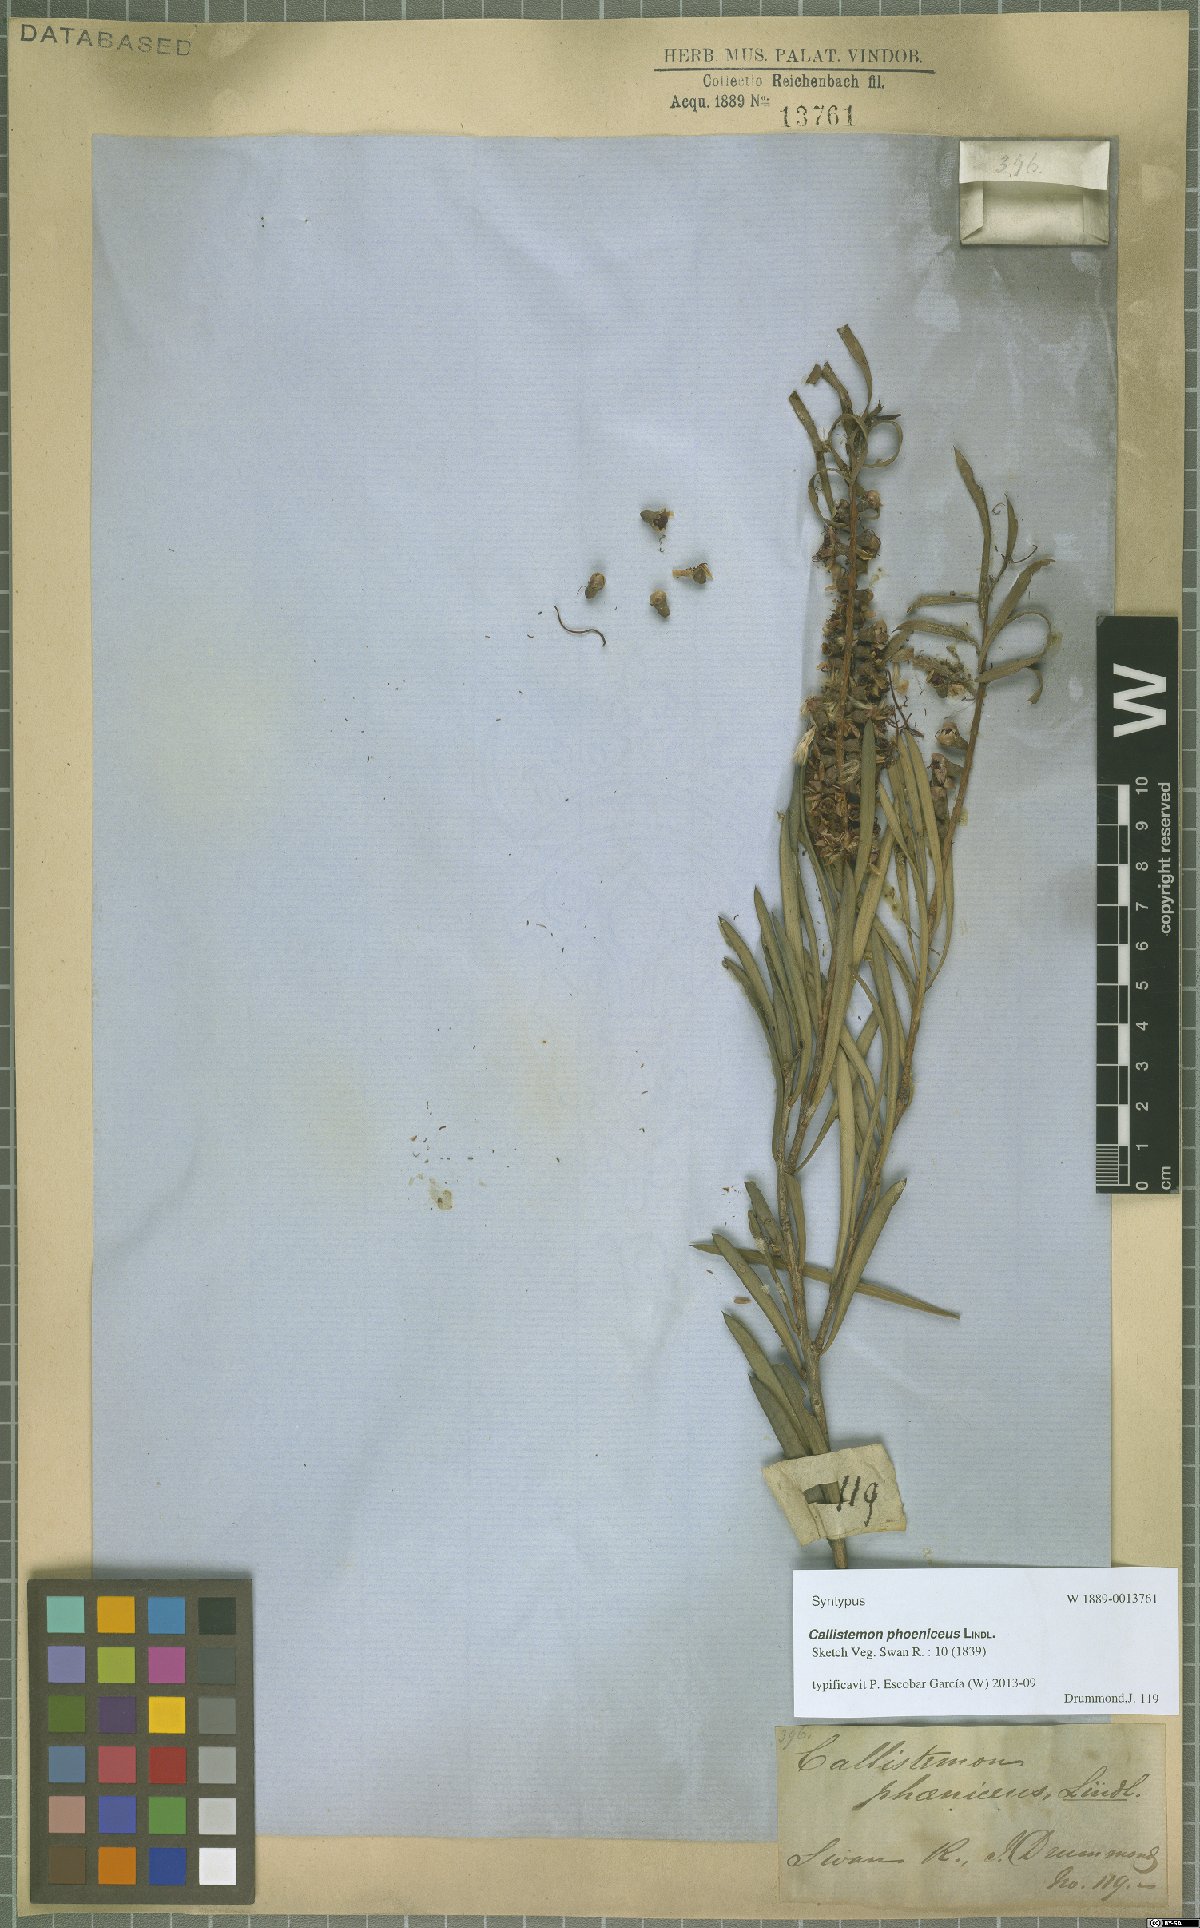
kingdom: Plantae
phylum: Tracheophyta
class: Magnoliopsida
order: Myrtales
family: Myrtaceae
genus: Callistemon
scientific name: Callistemon phoeniceus
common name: Lesser bottlebrush
